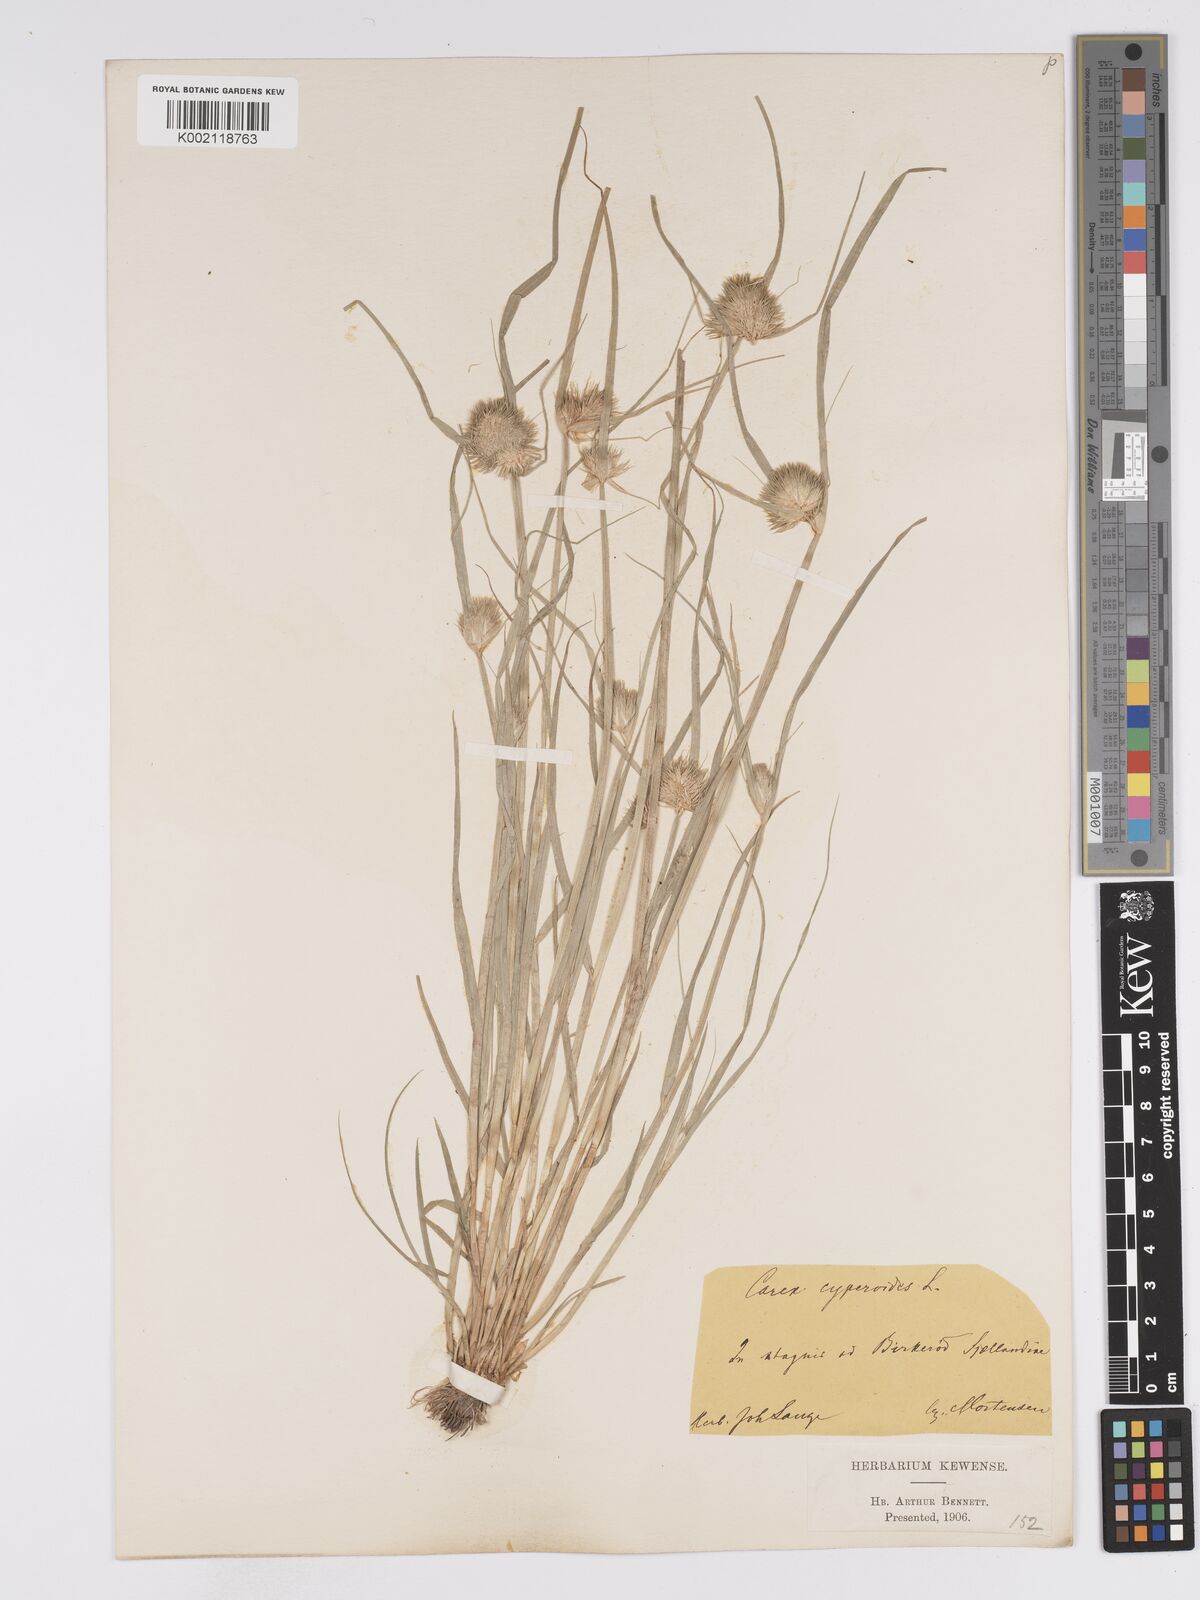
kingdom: Plantae
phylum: Tracheophyta
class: Liliopsida
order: Poales
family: Cyperaceae
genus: Carex
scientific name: Carex bohemica
